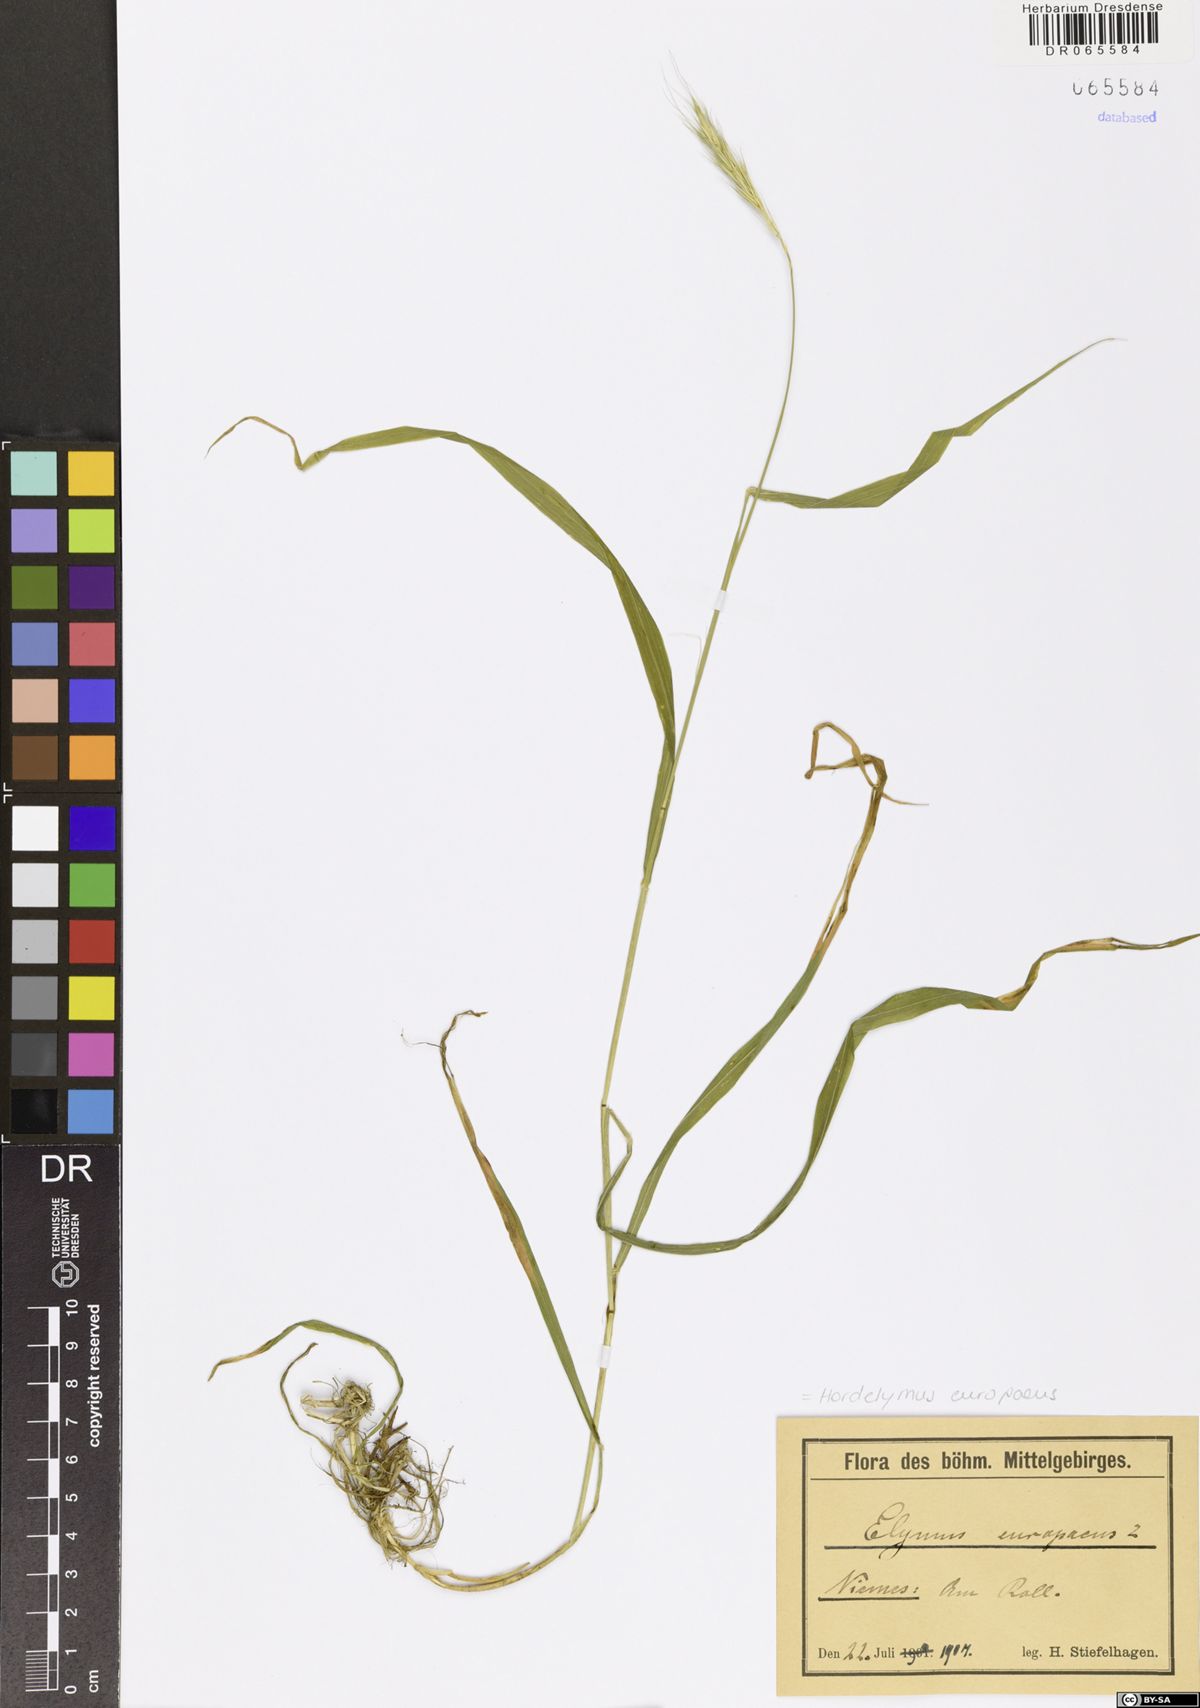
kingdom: Plantae
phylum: Tracheophyta
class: Liliopsida
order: Poales
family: Poaceae
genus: Hordelymus
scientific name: Hordelymus europaeus
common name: Wood-barley
